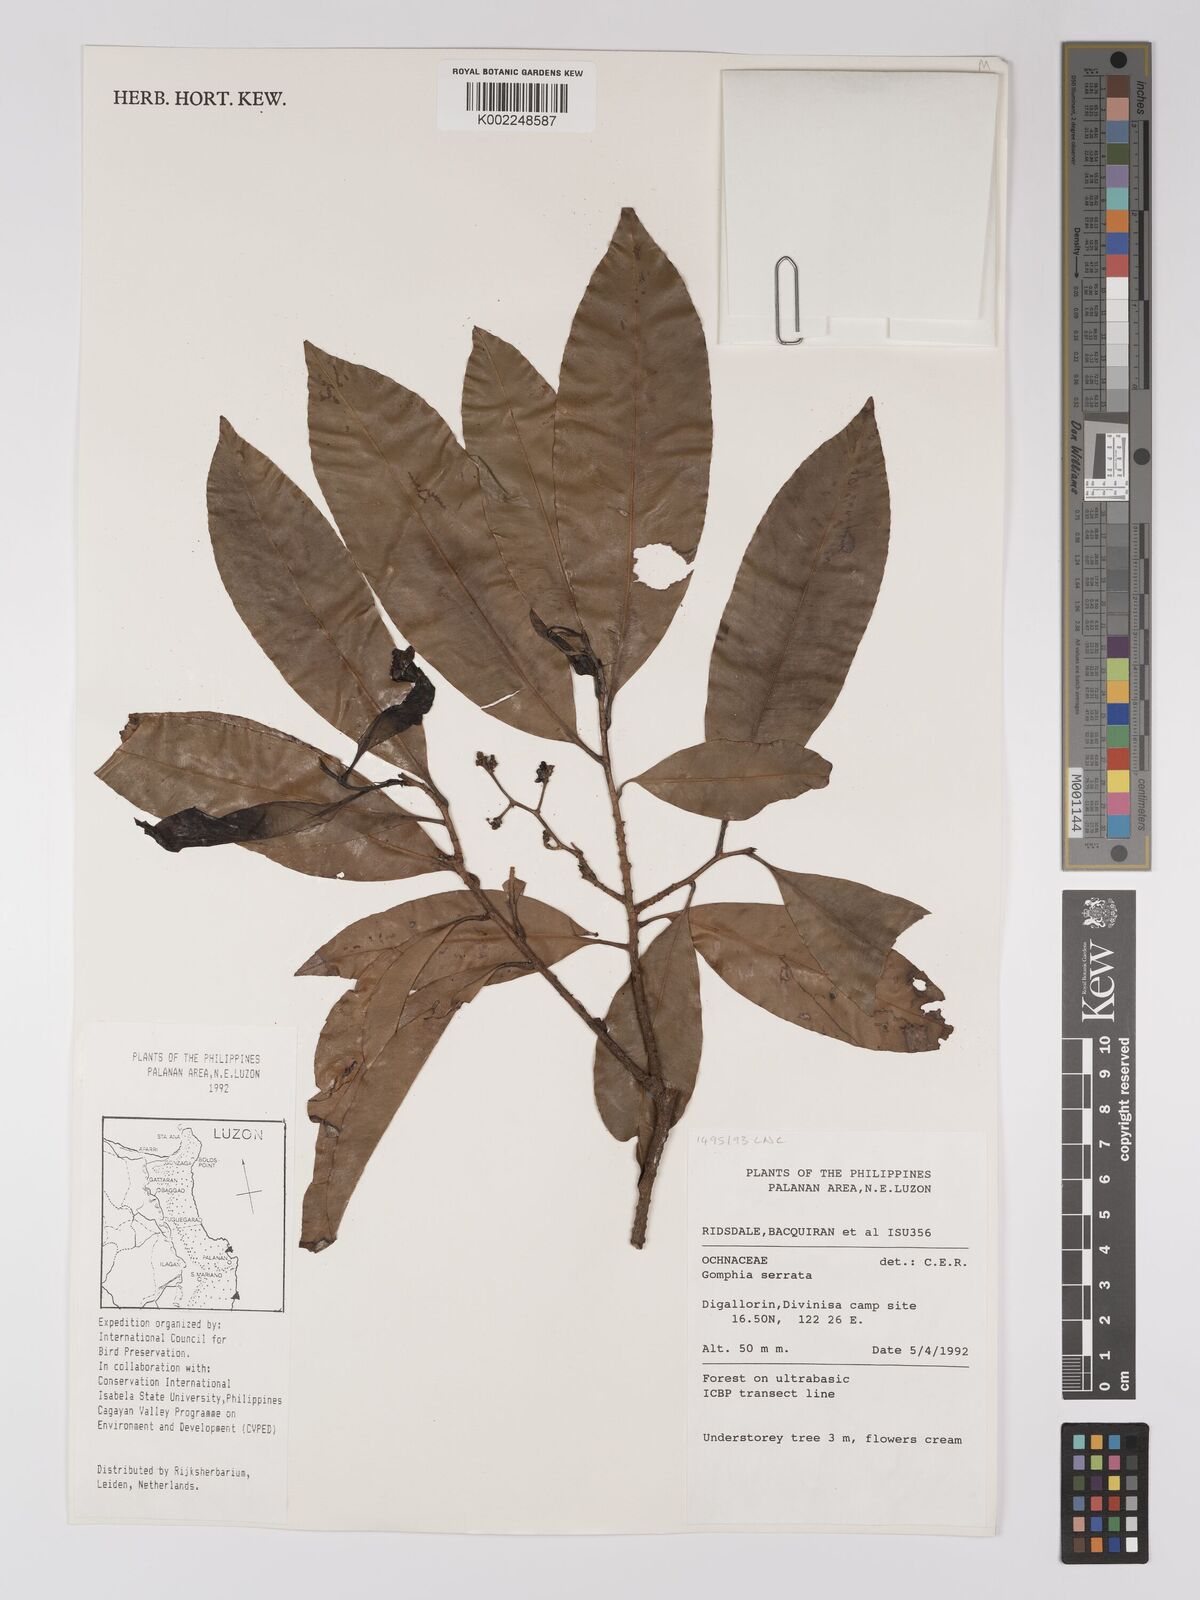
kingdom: Plantae
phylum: Tracheophyta
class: Magnoliopsida
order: Malpighiales
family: Ochnaceae
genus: Gomphia
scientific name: Gomphia serrata
